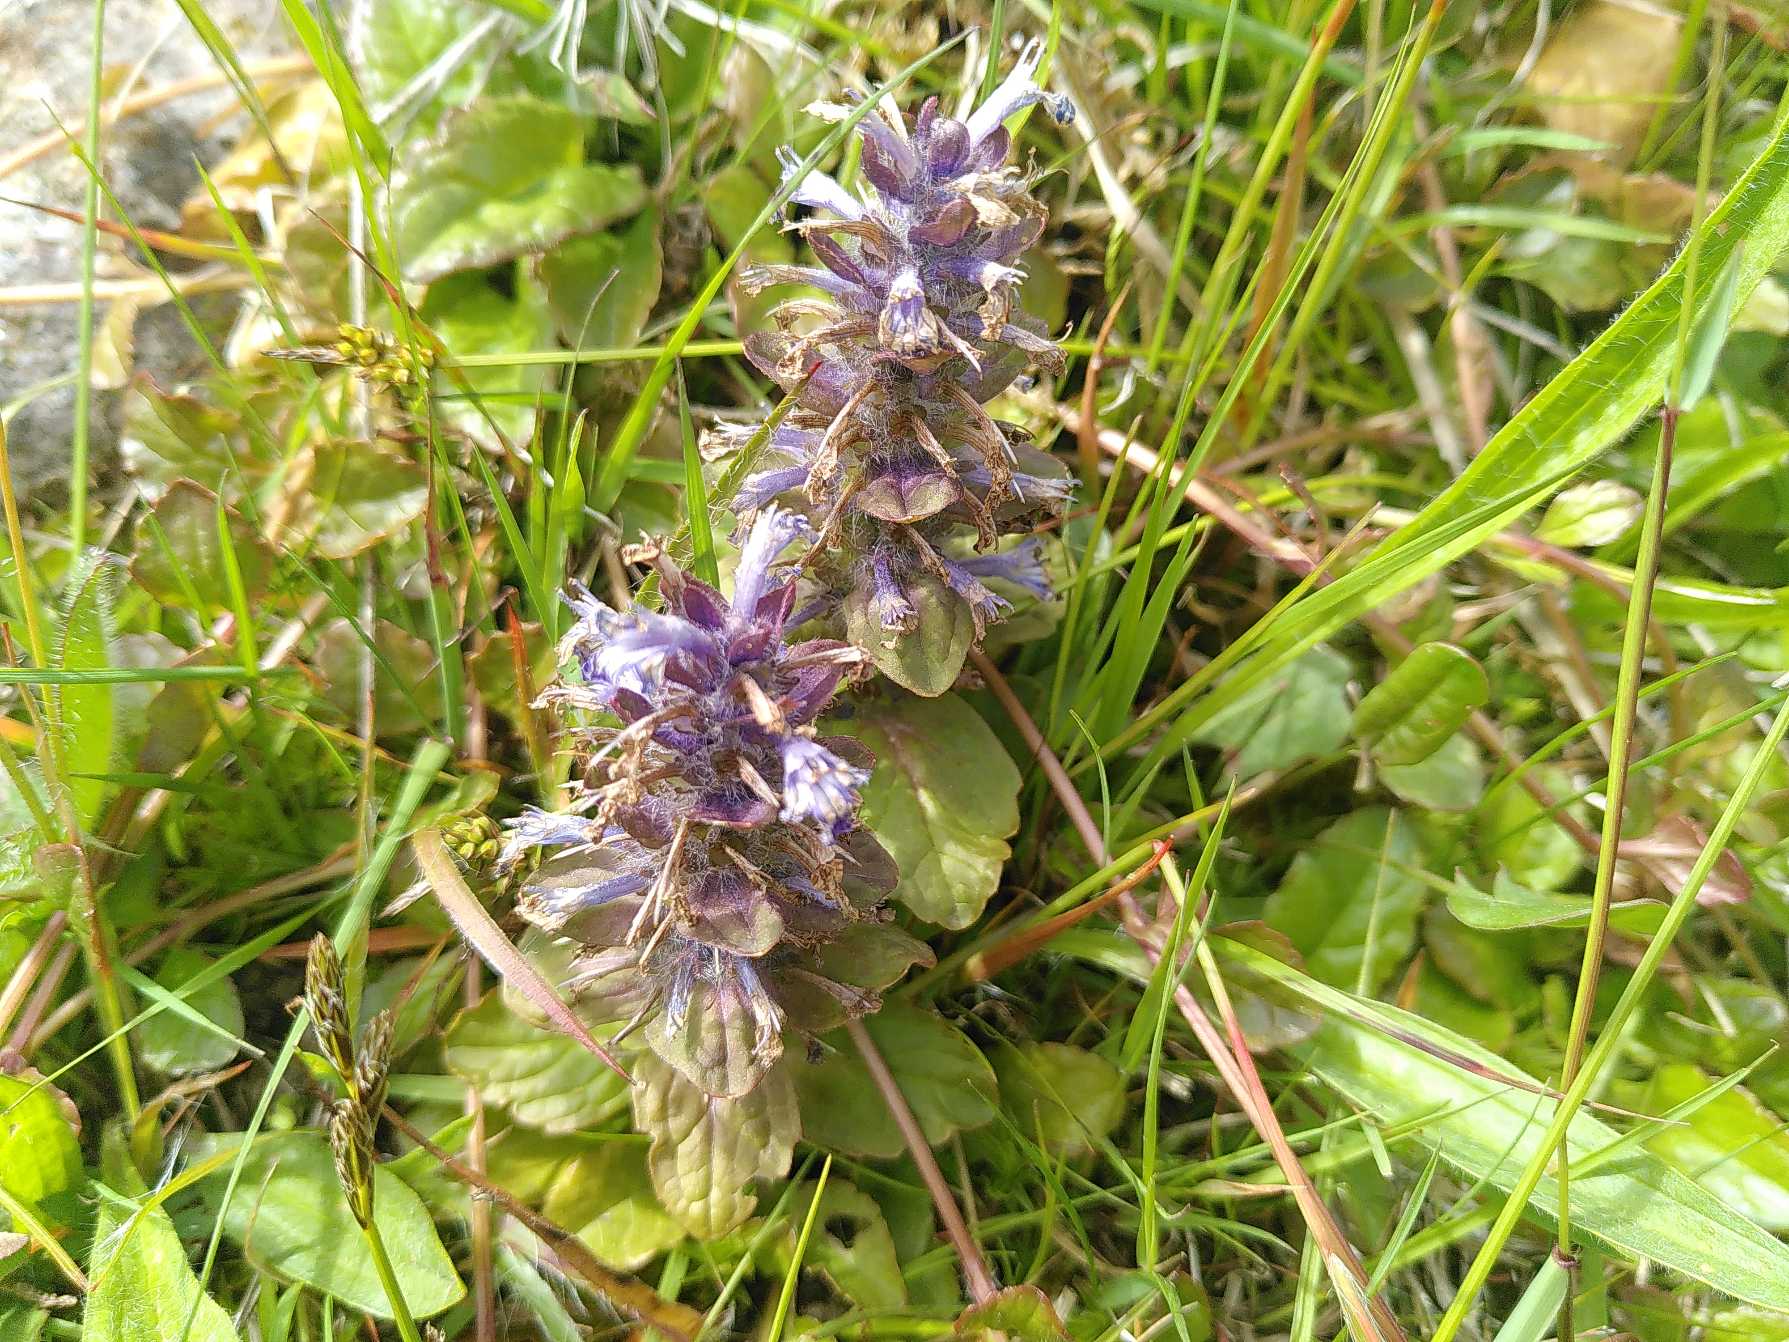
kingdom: Plantae
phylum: Tracheophyta
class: Magnoliopsida
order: Lamiales
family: Lamiaceae
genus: Ajuga
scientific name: Ajuga reptans
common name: Krybende læbeløs
